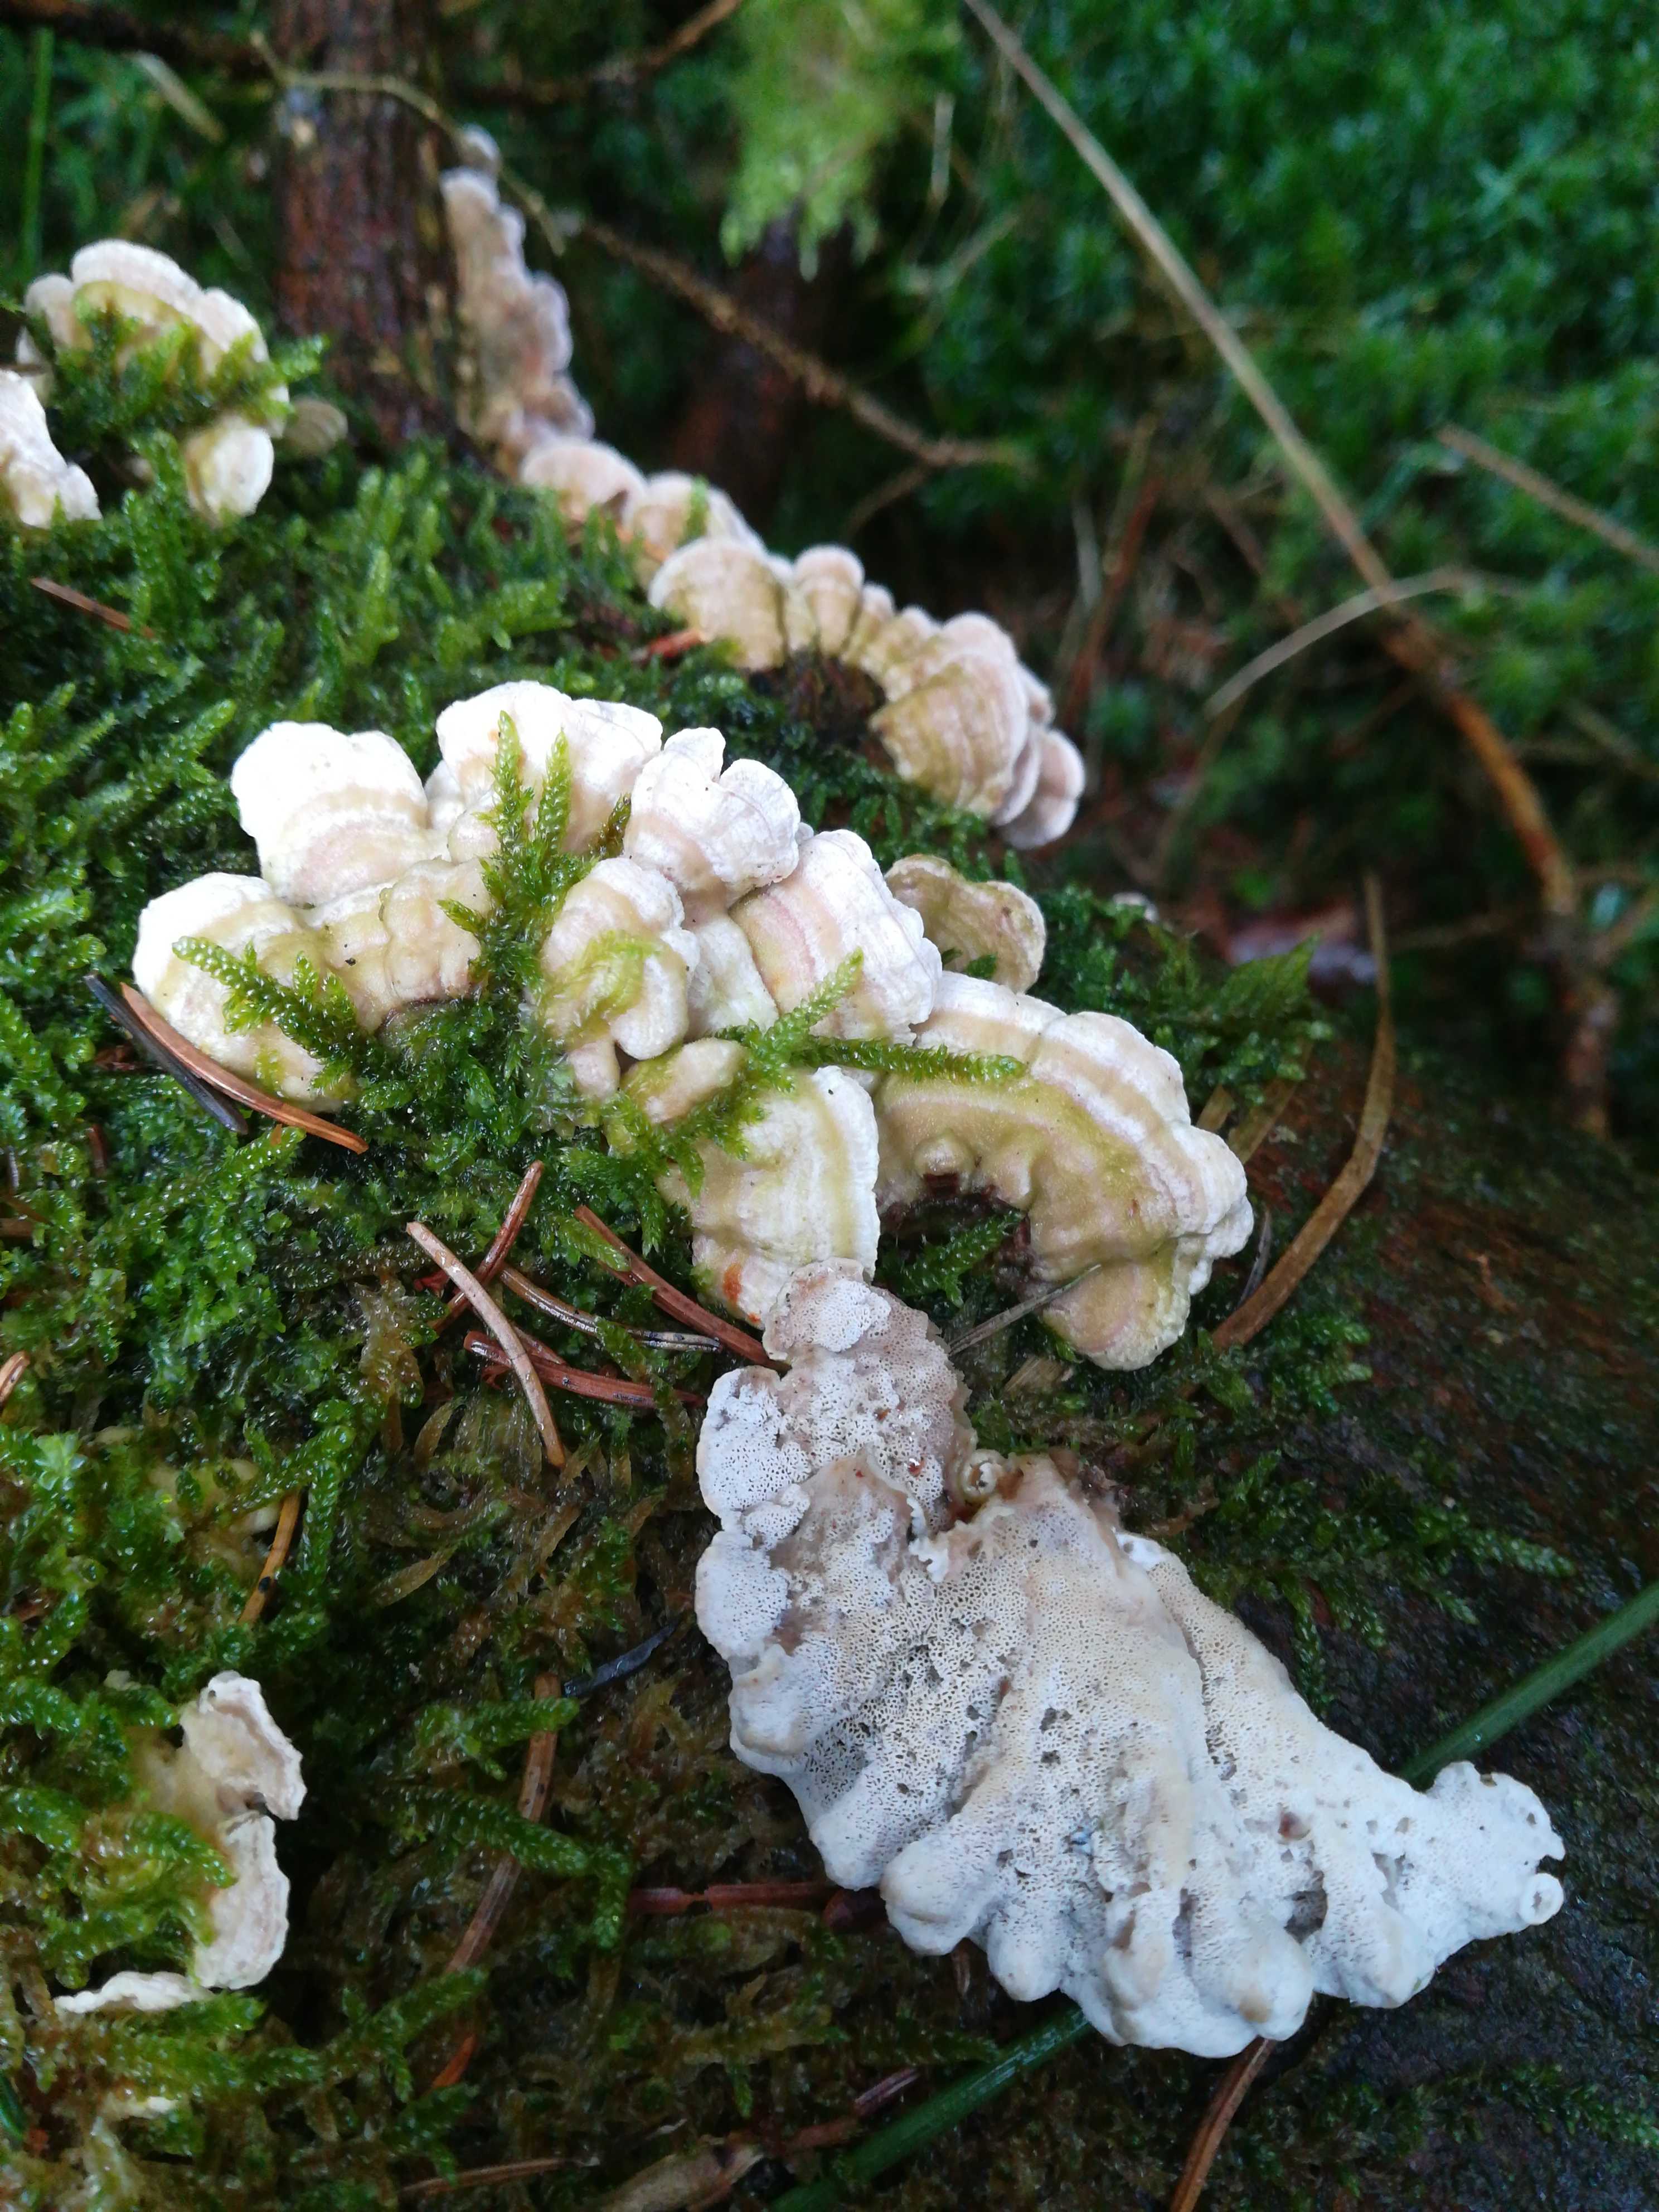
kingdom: Fungi
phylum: Basidiomycota
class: Agaricomycetes
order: Polyporales
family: Incrustoporiaceae
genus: Skeletocutis
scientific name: Skeletocutis carneogrisea
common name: rødgrå krystalporesvamp
